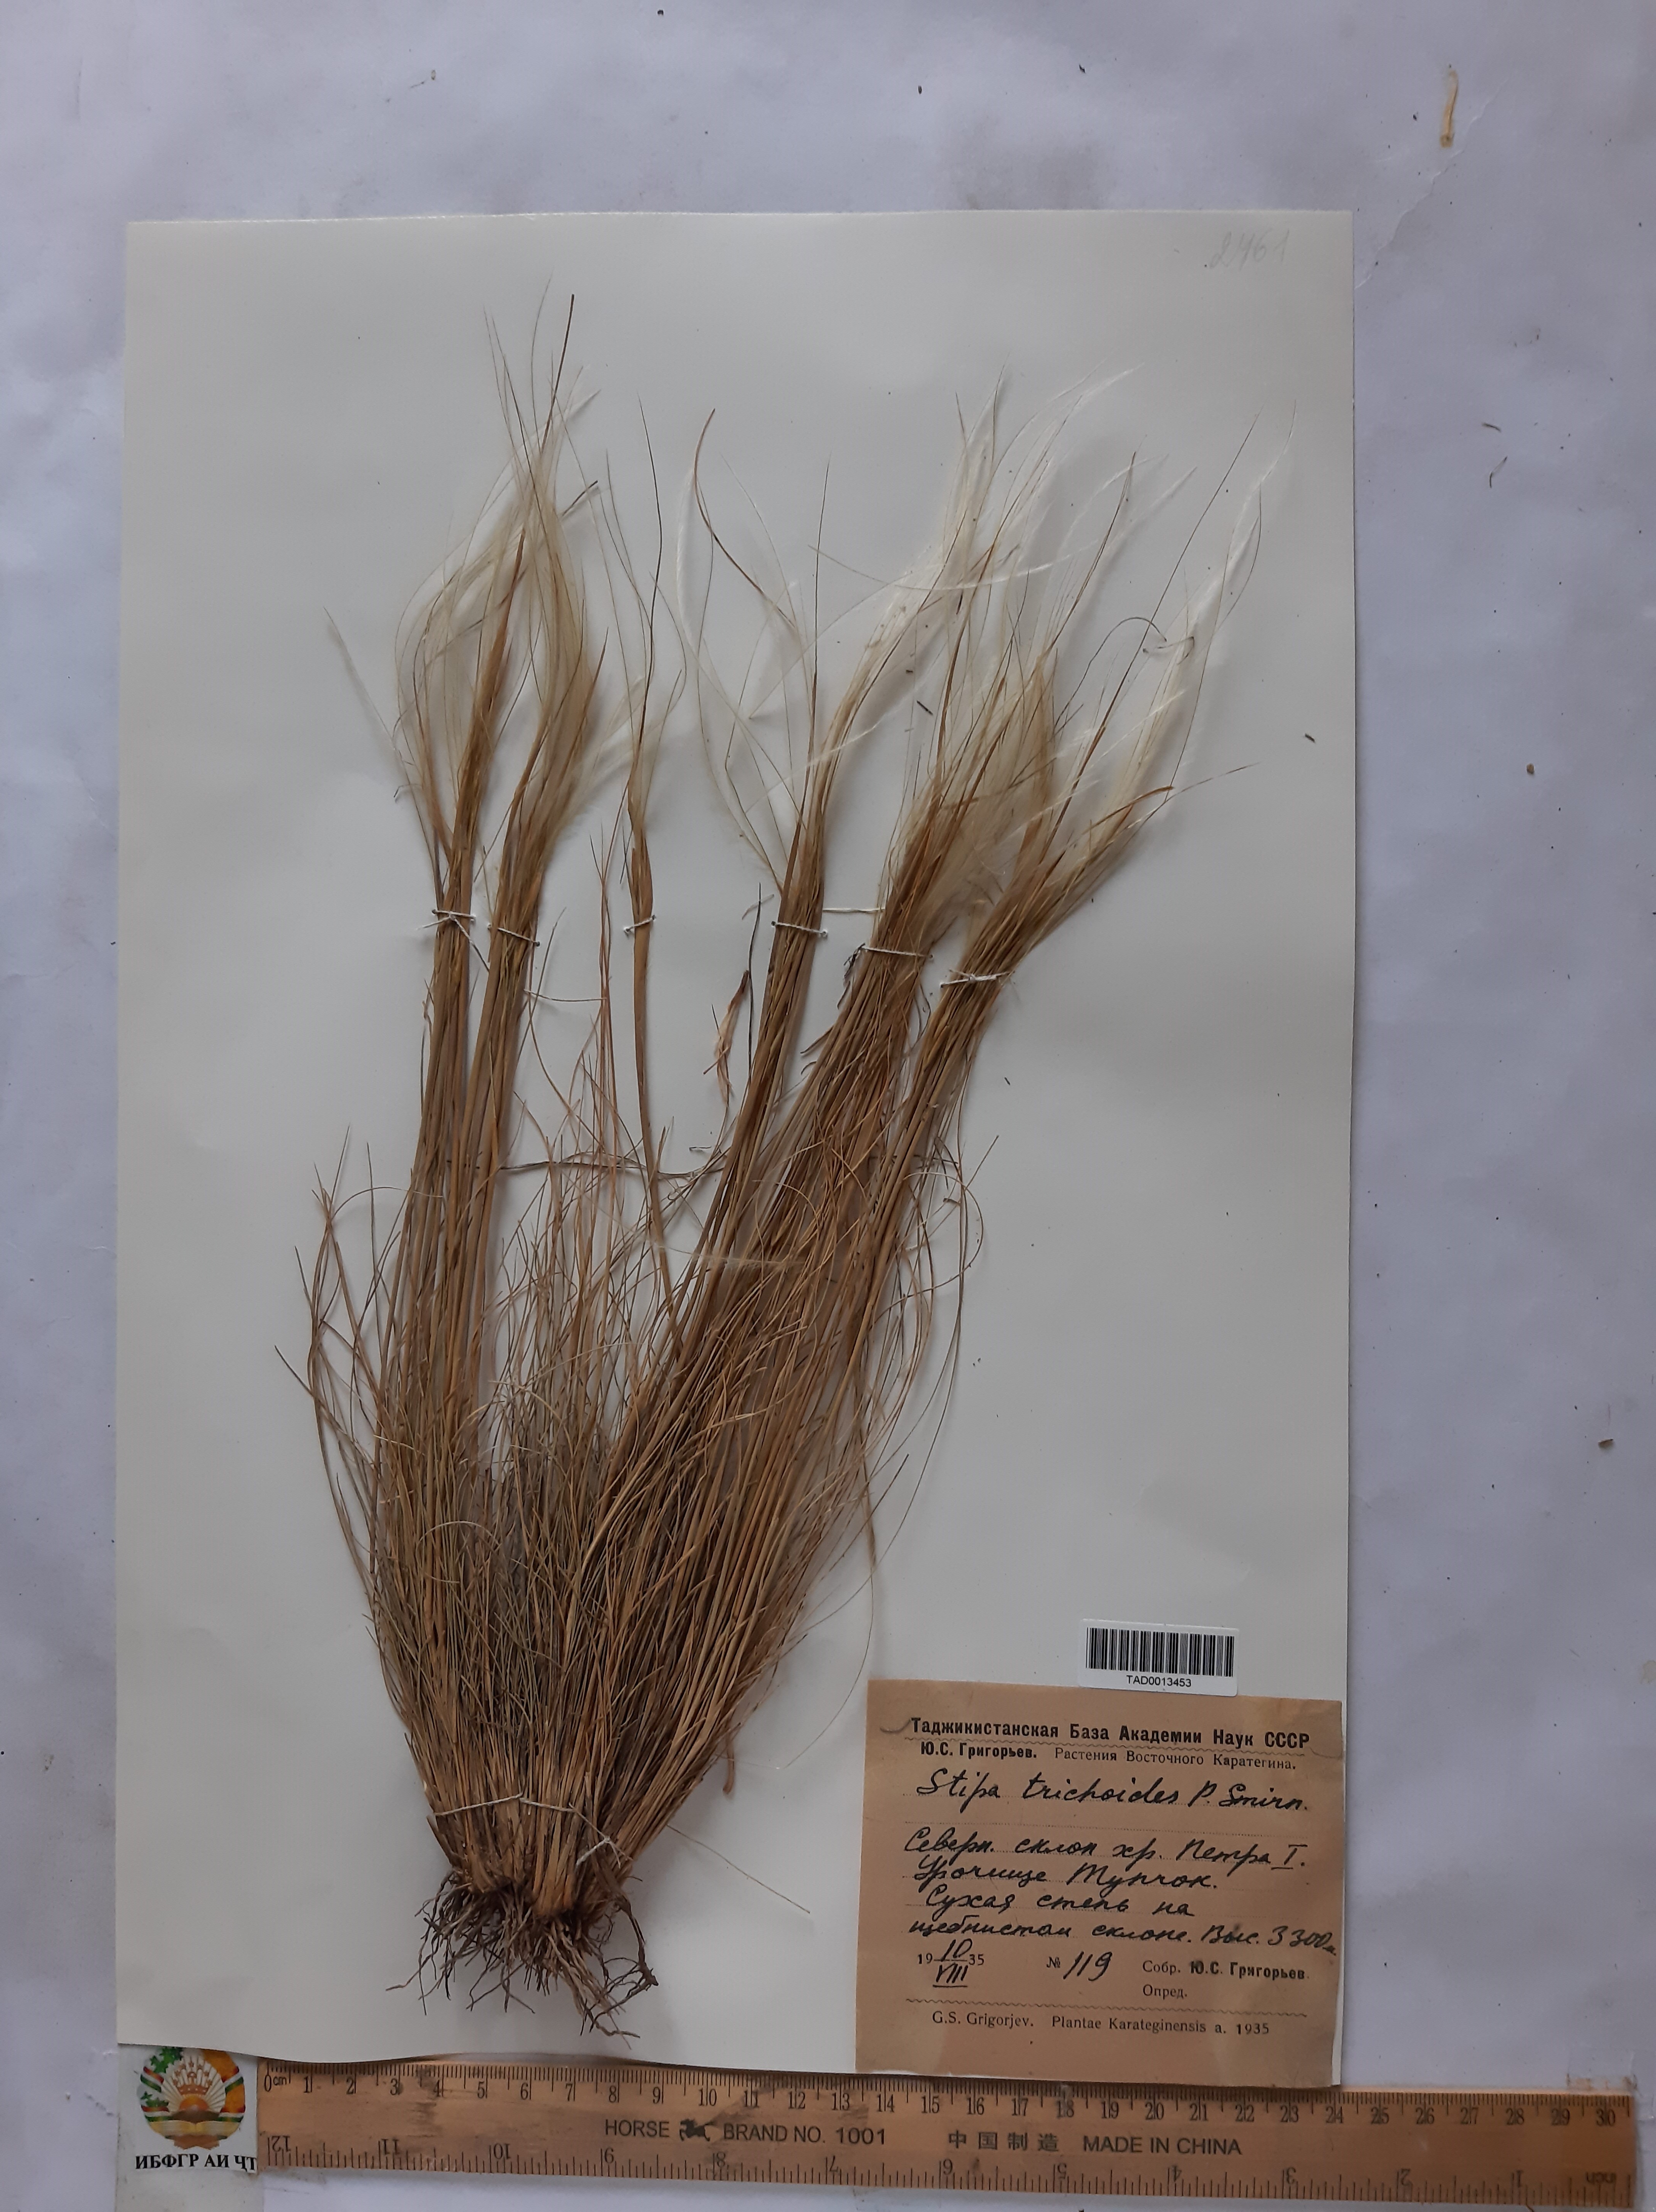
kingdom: Plantae
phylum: Tracheophyta
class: Liliopsida
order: Poales
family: Poaceae
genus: Stipa
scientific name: Stipa trichoides
